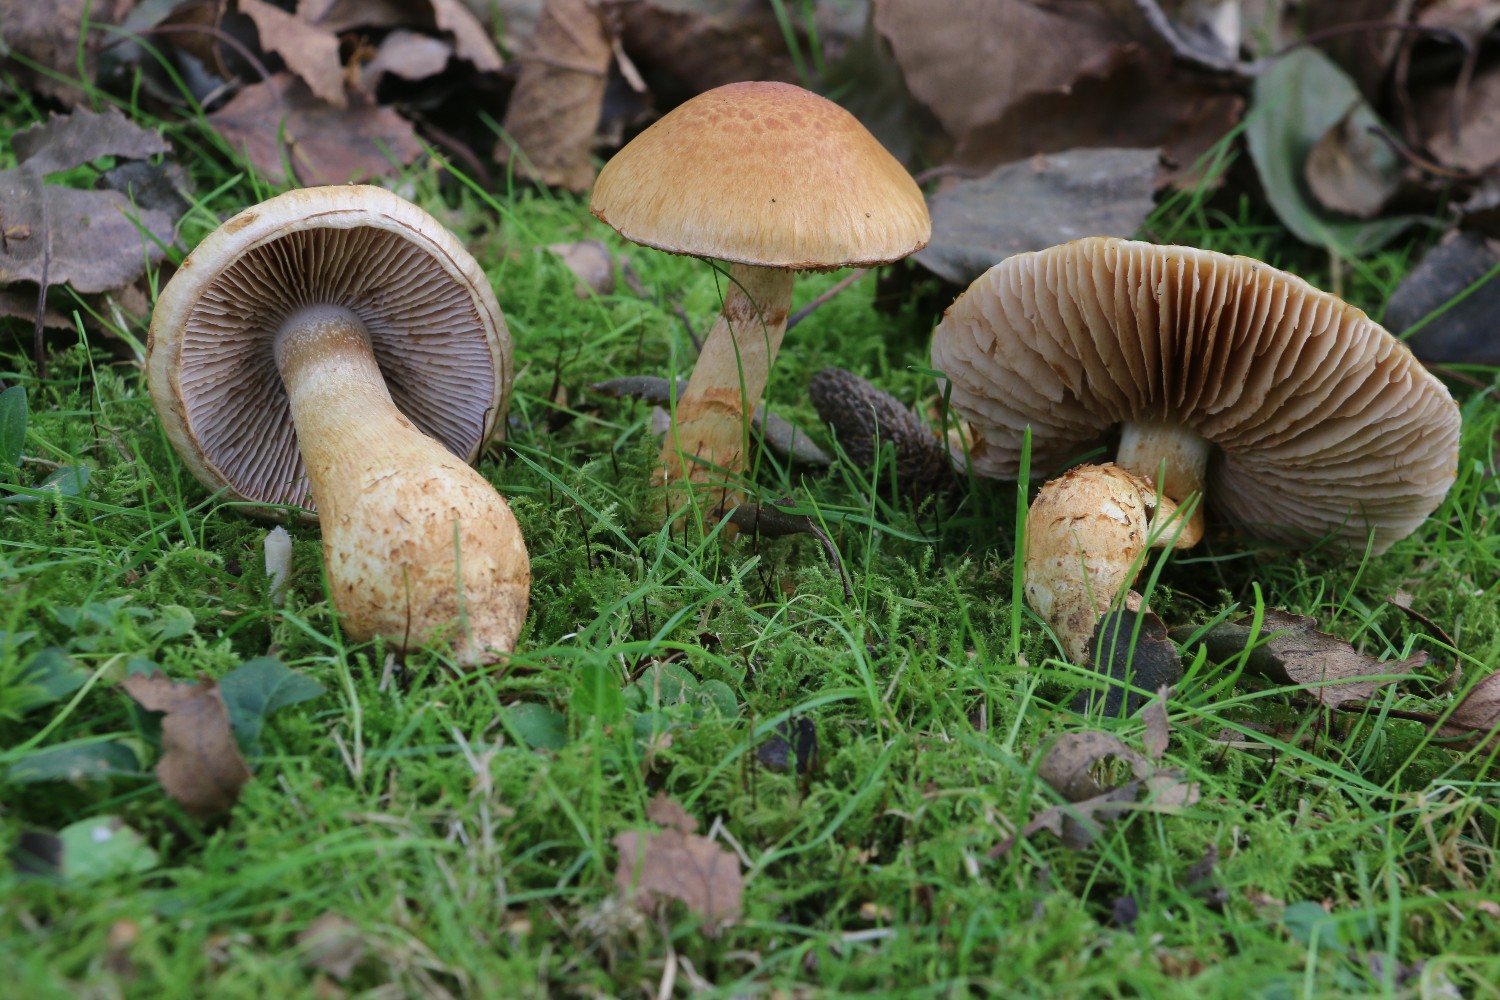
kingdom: Fungi
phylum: Basidiomycota
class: Agaricomycetes
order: Agaricales
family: Cortinariaceae
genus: Phlegmacium
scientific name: Phlegmacium triumphans
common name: gulbæltet slørhat
